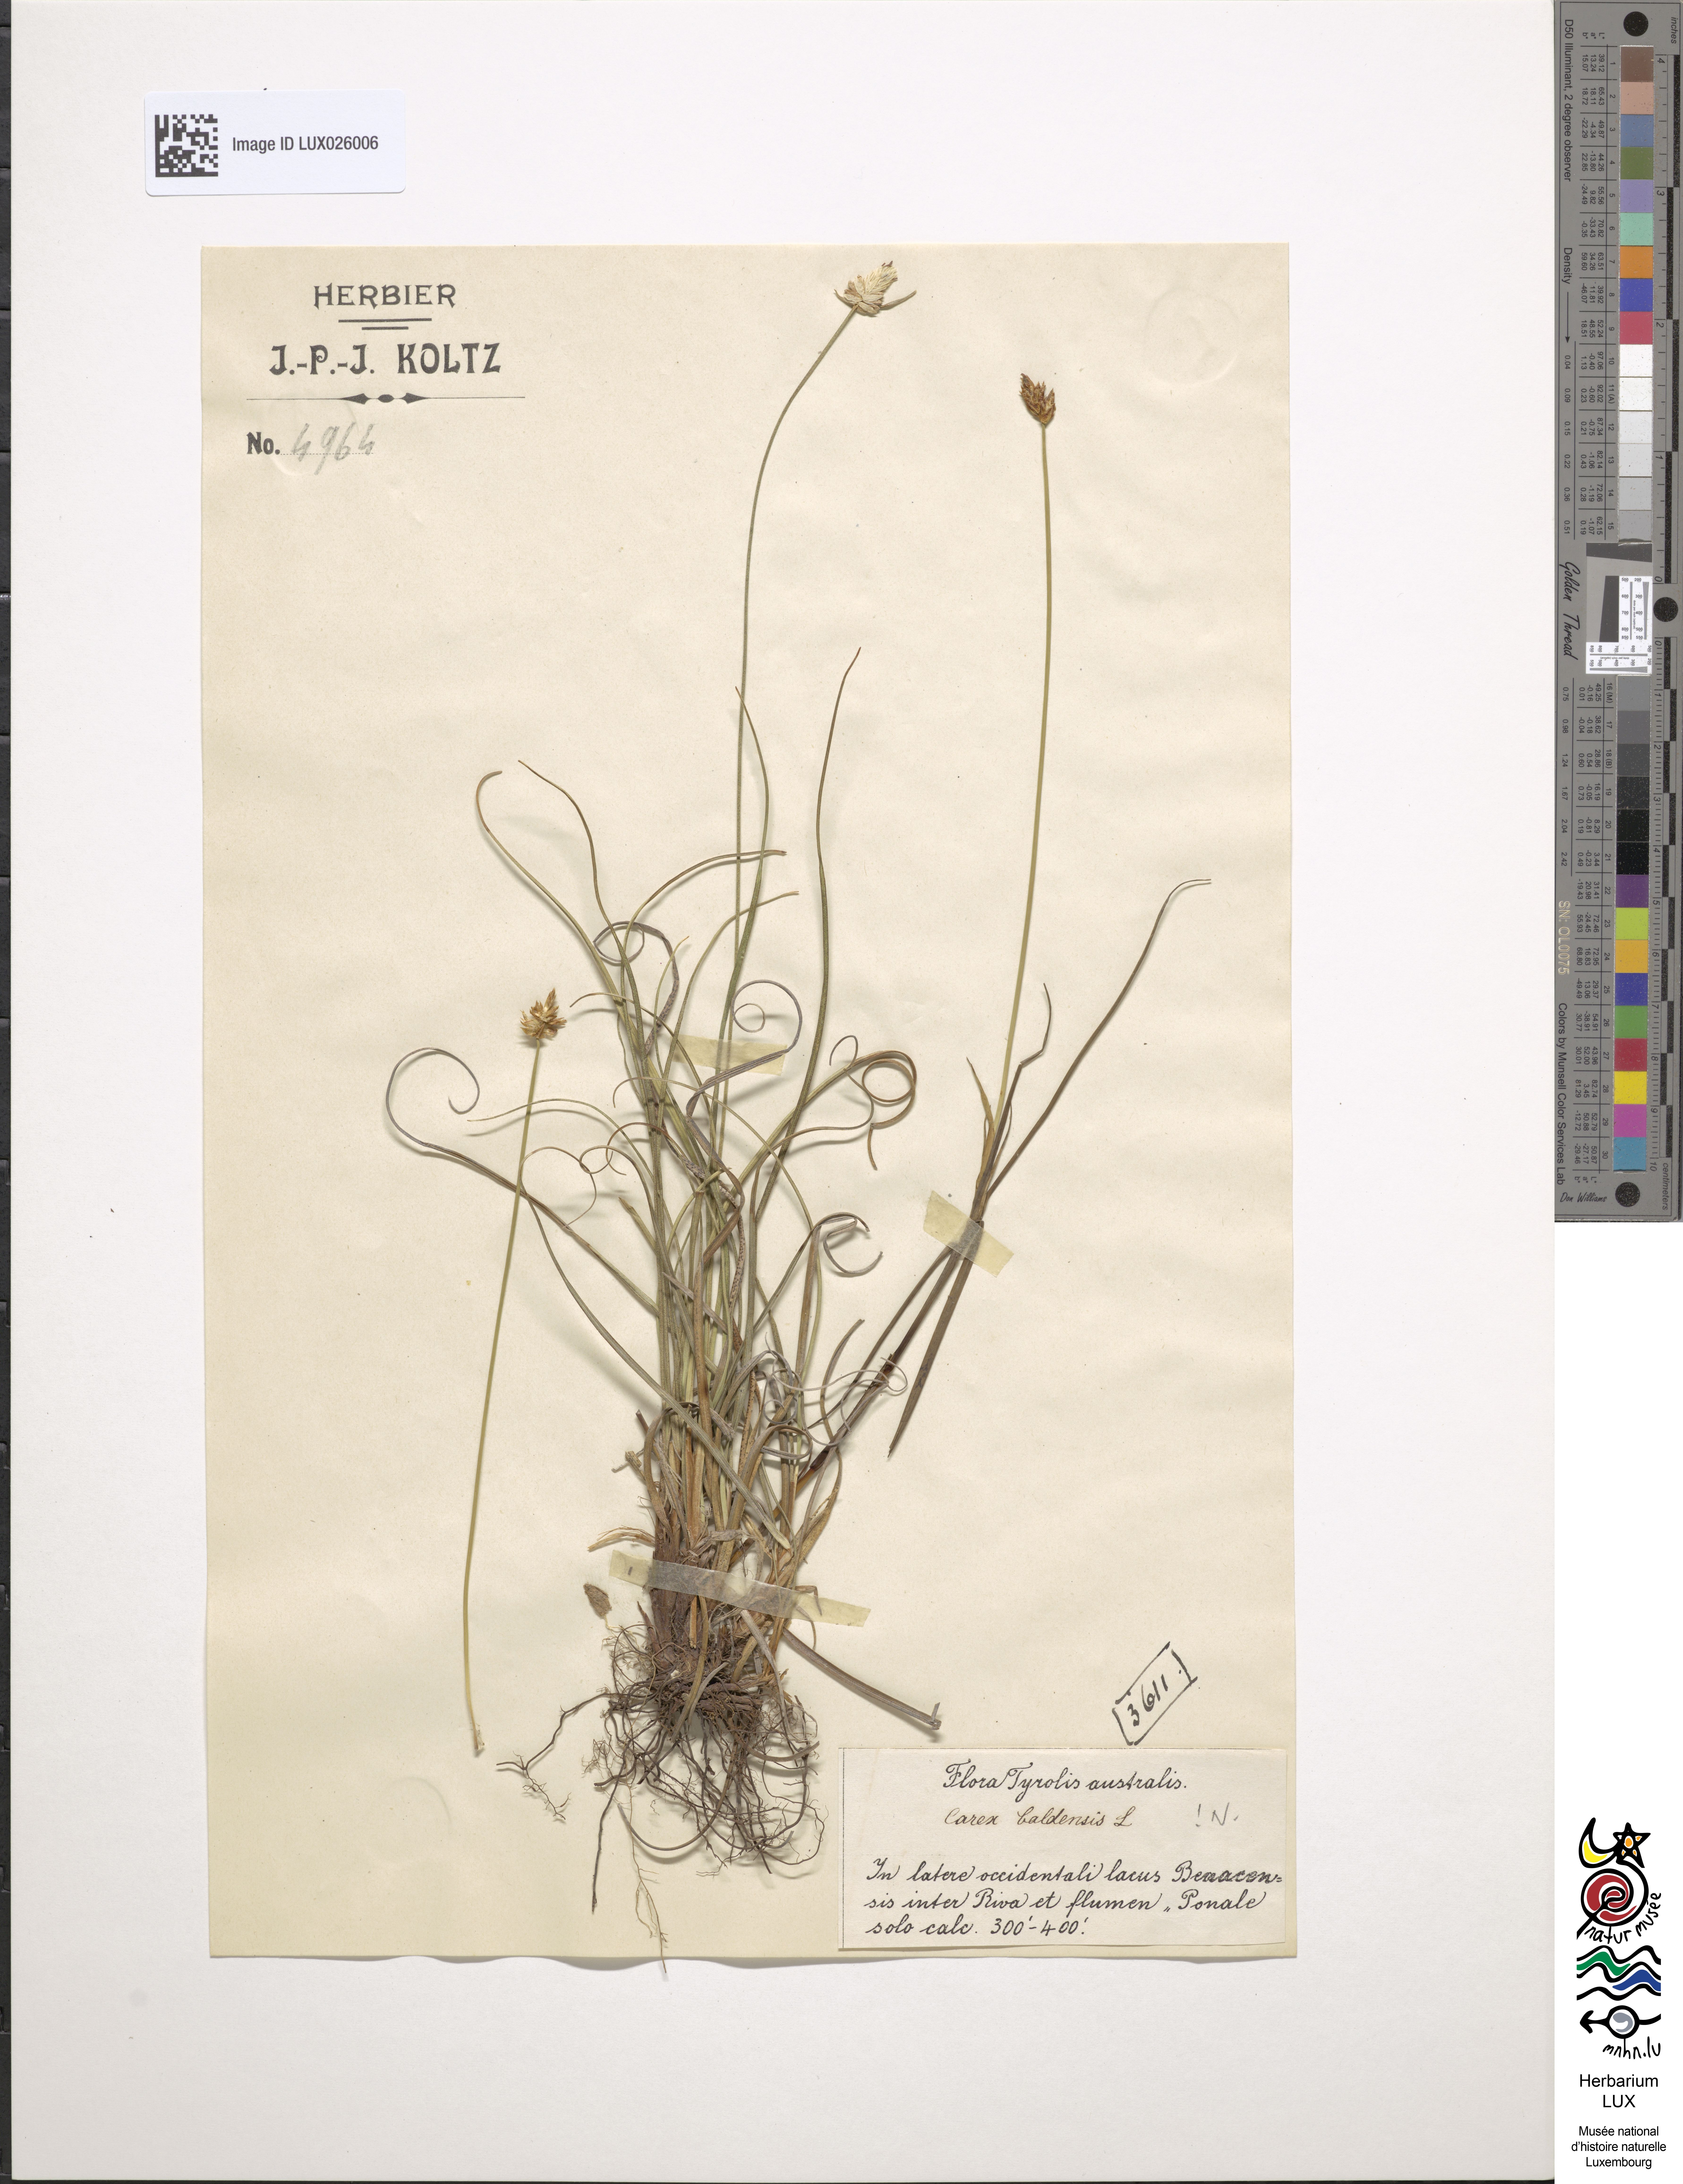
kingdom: Plantae
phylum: Tracheophyta
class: Liliopsida
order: Poales
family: Cyperaceae
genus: Carex
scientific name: Carex baldensis
